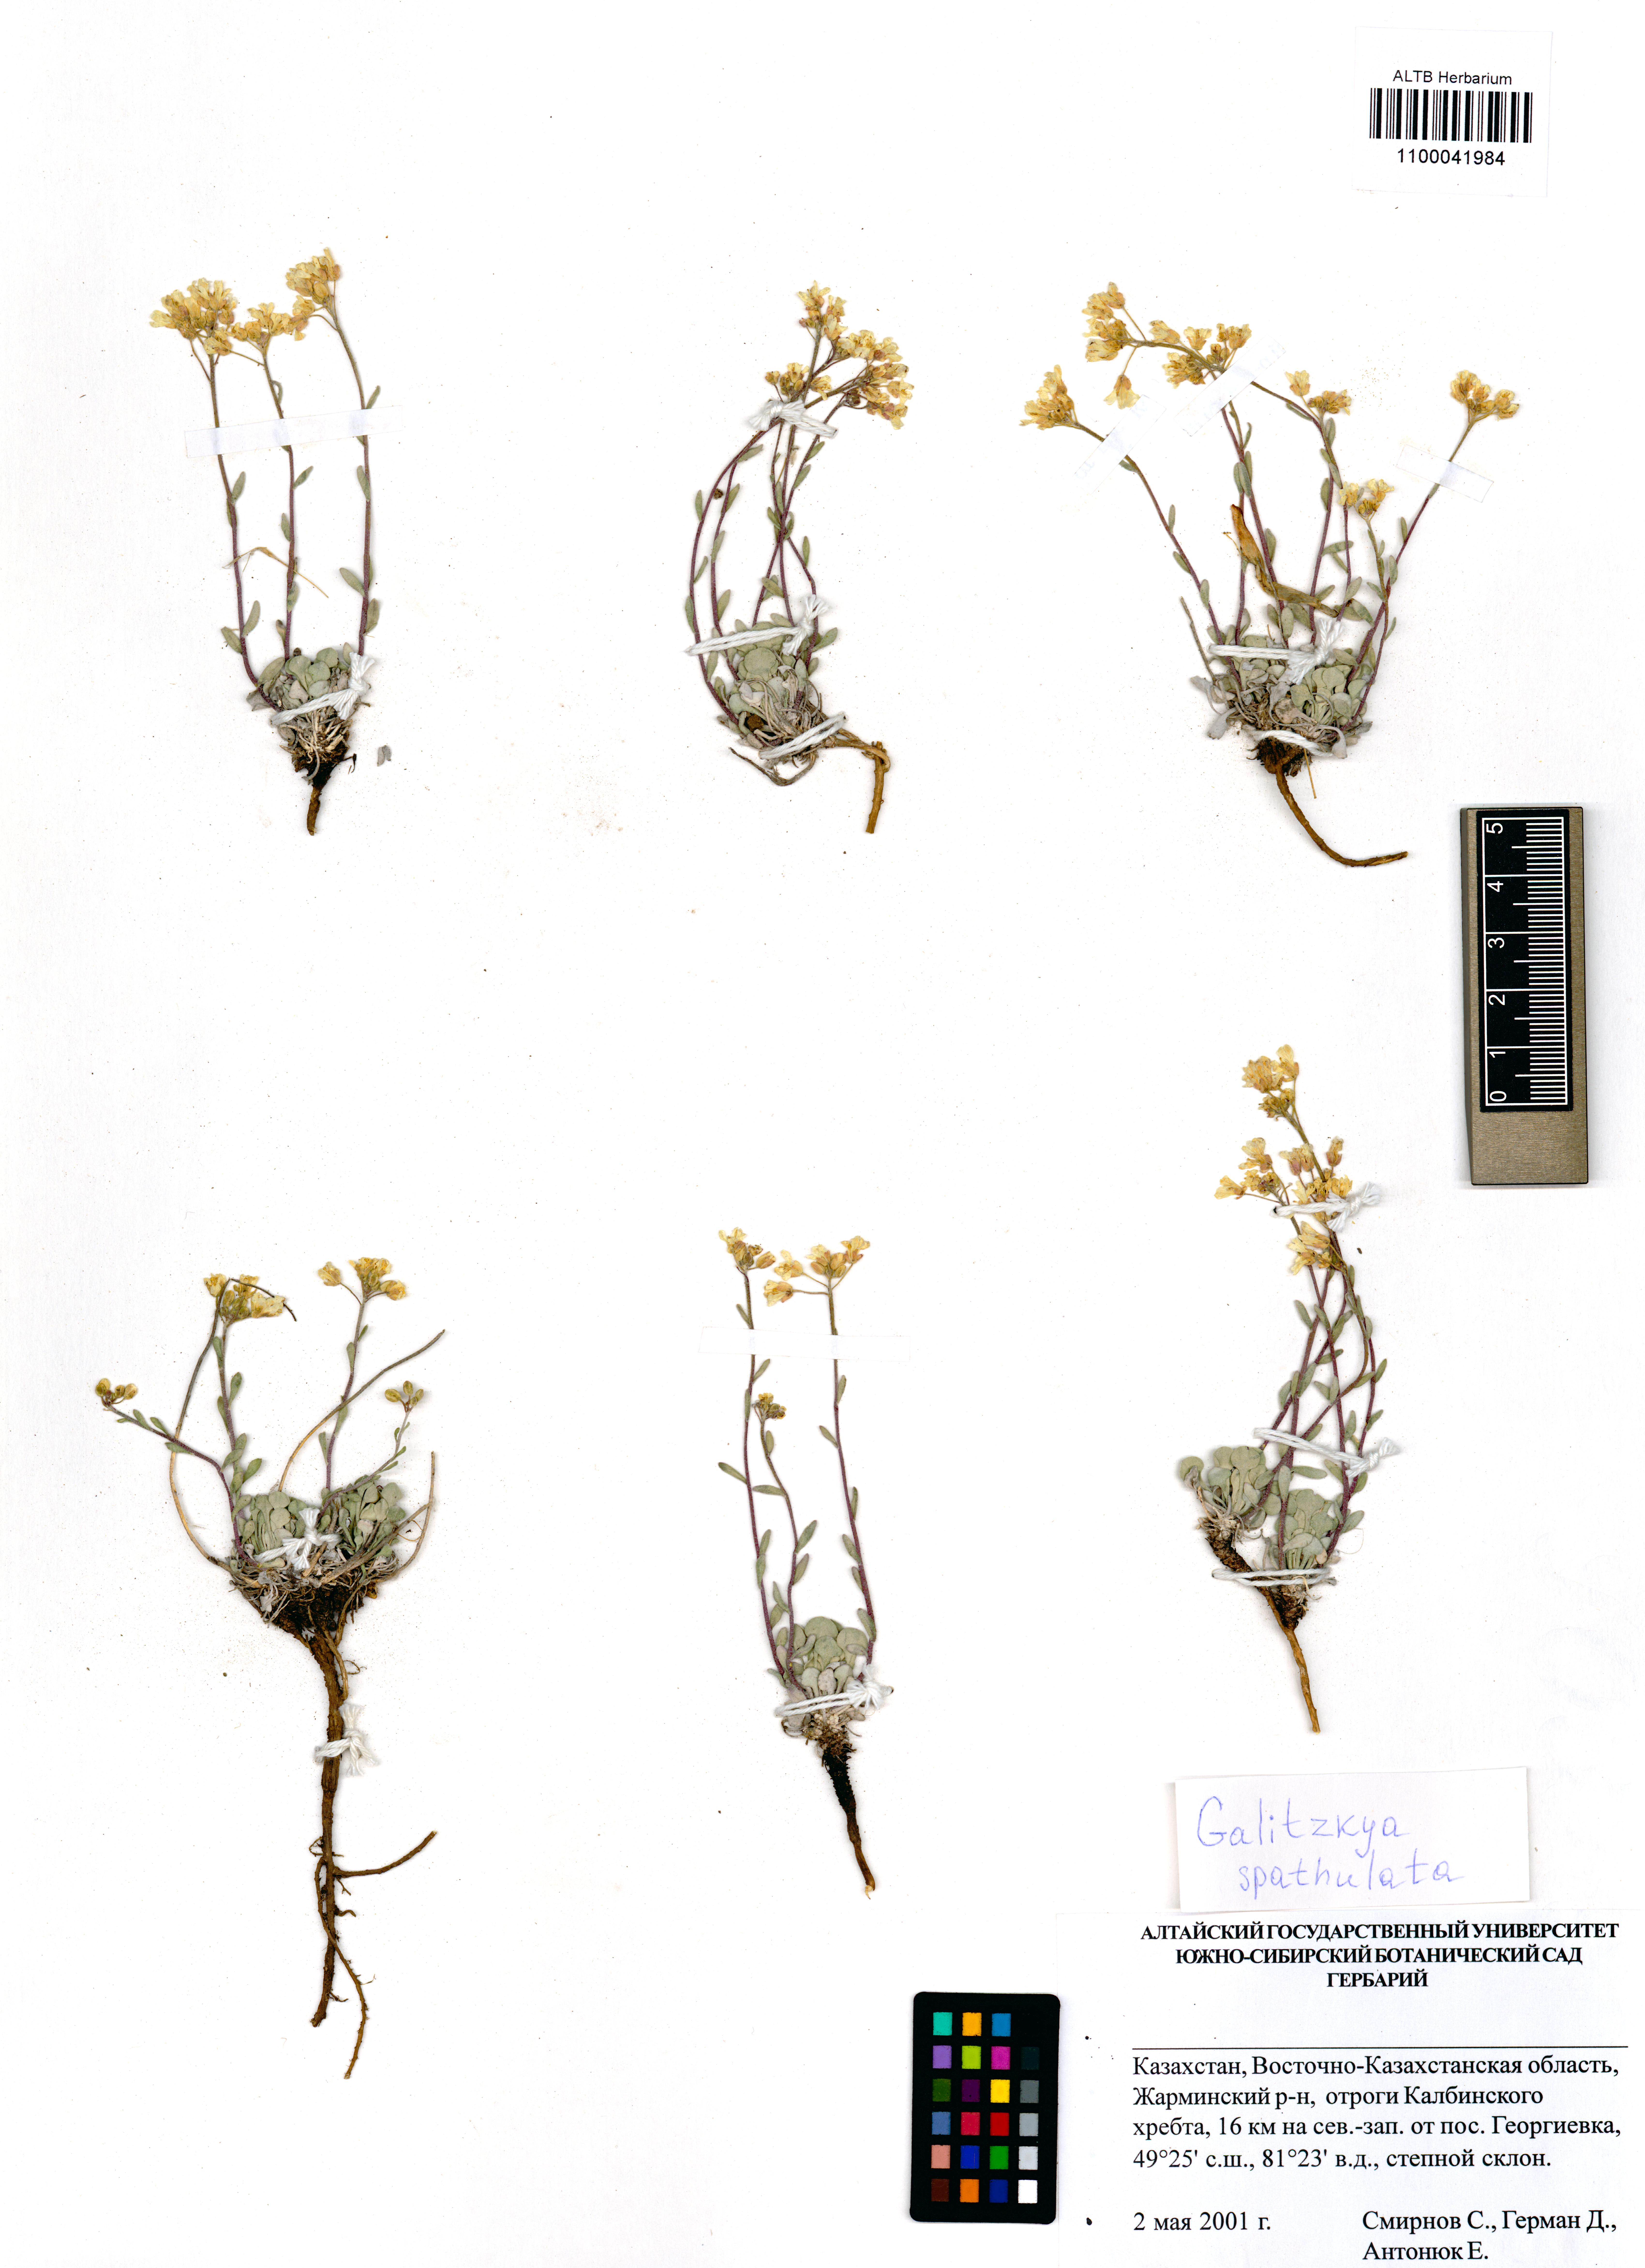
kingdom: Plantae
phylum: Tracheophyta
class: Magnoliopsida
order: Brassicales
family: Brassicaceae
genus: Galitzkya
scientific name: Galitzkya spathulata
